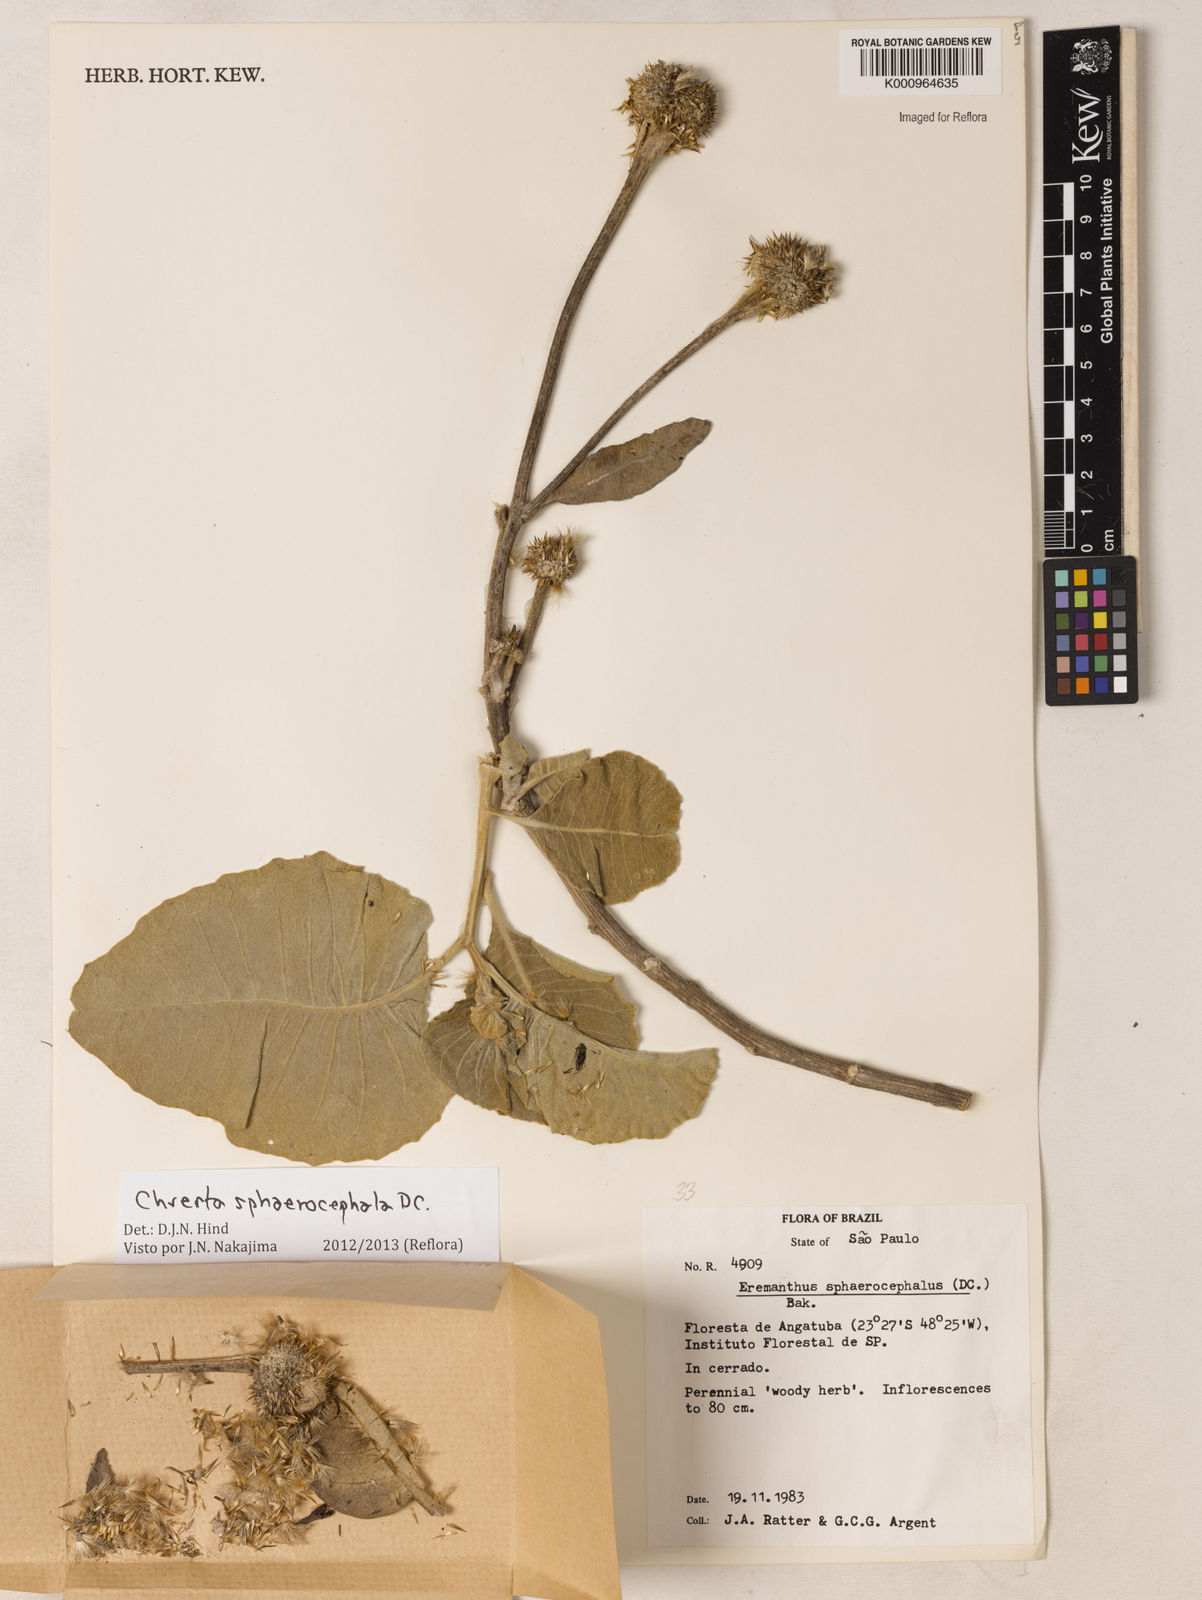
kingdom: Plantae
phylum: Tracheophyta
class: Magnoliopsida
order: Asterales
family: Asteraceae
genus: Chresta
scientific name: Chresta sphaerocephala
